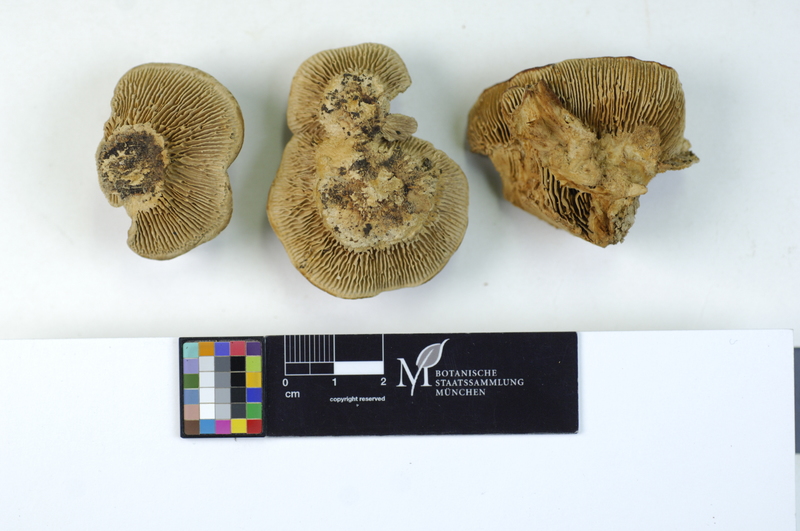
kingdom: Fungi
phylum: Basidiomycota
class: Agaricomycetes
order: Polyporales
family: Polyporaceae
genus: Lenzites
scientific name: Lenzites betulinus
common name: Birch mazegill
